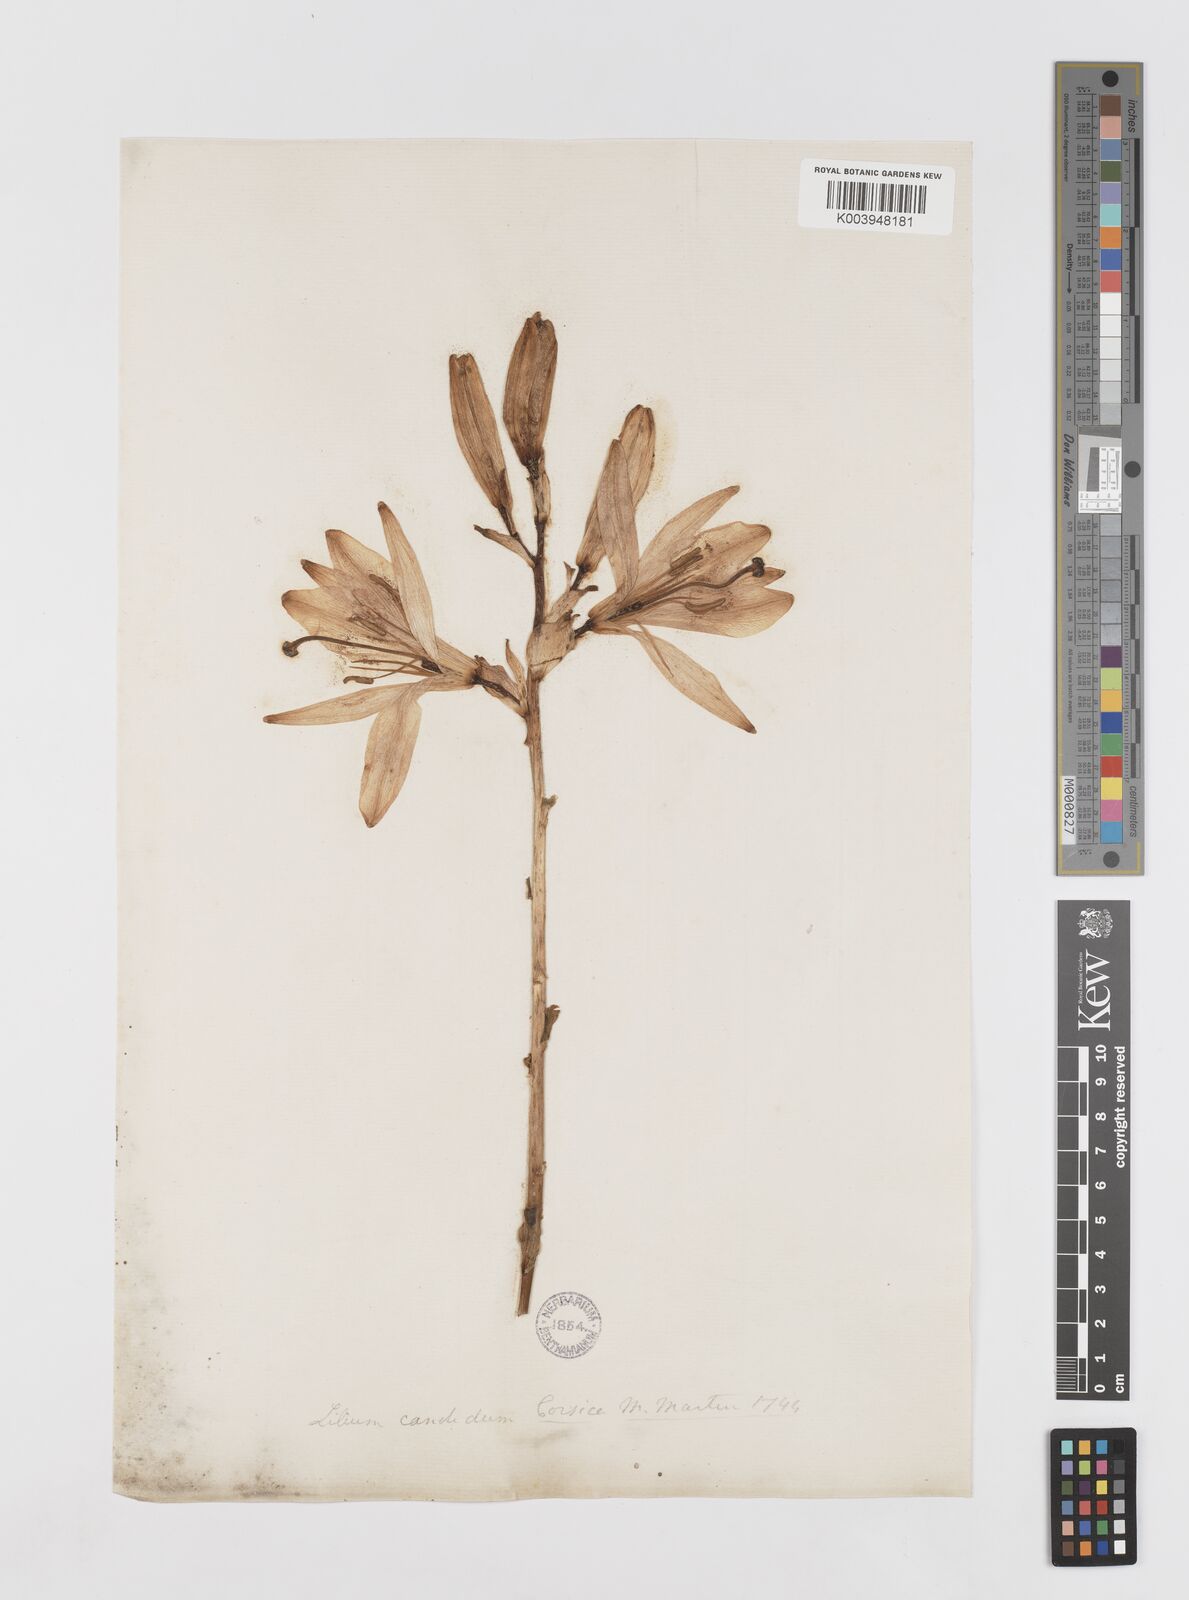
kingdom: Plantae
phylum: Tracheophyta
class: Liliopsida
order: Liliales
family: Liliaceae
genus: Lilium
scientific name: Lilium candidum
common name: Madonna lily
